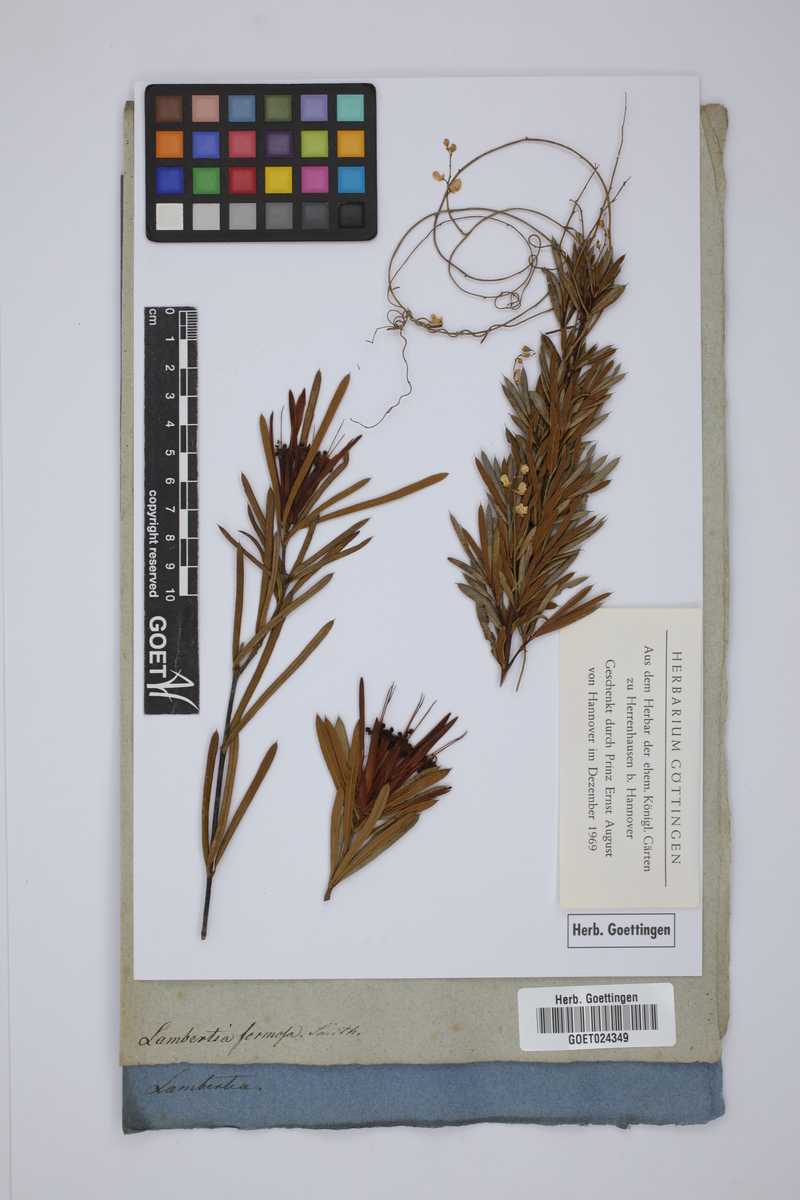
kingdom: Plantae
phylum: Tracheophyta
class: Magnoliopsida
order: Proteales
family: Proteaceae
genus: Lambertia
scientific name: Lambertia formosa
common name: Mountain-devil
